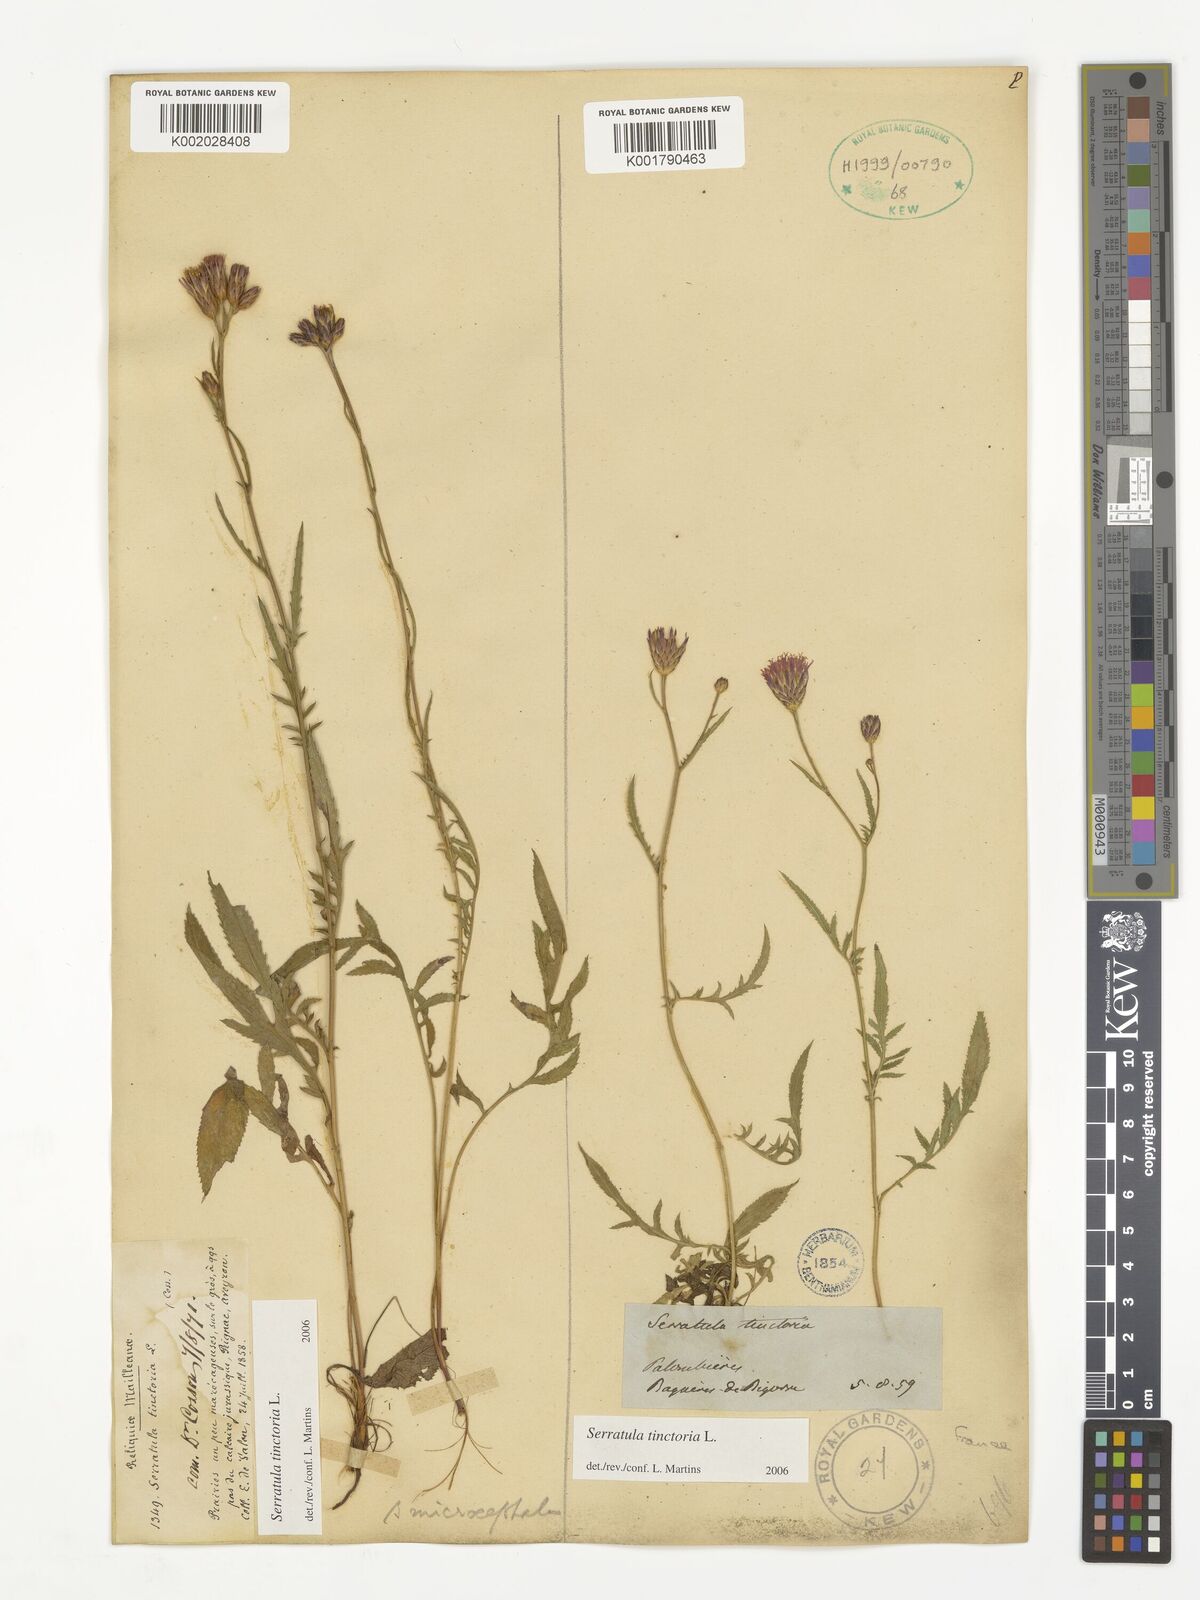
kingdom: Plantae
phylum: Tracheophyta
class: Magnoliopsida
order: Asterales
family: Asteraceae
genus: Serratula
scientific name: Serratula tinctoria
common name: Saw-wort
